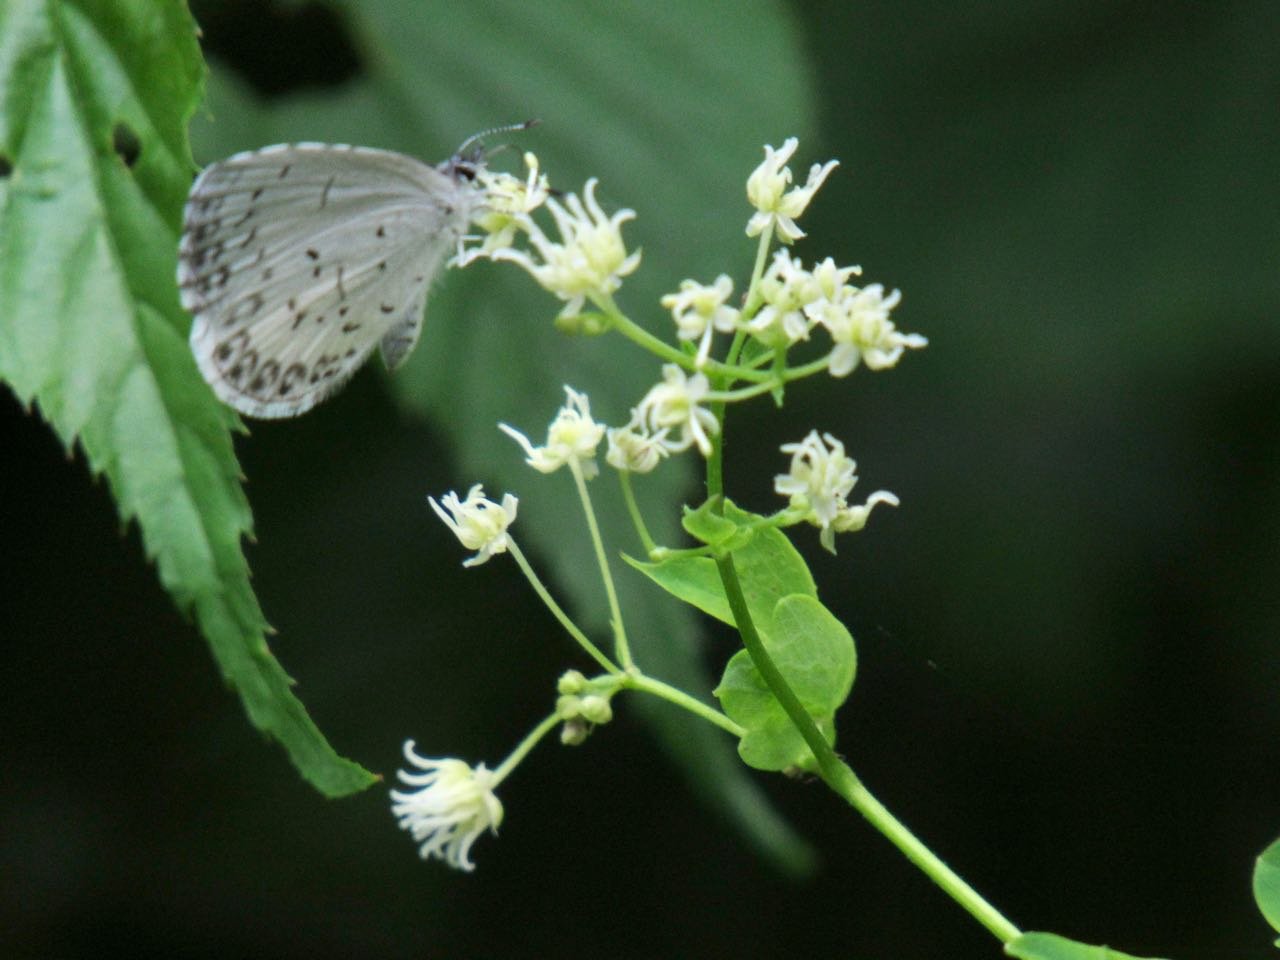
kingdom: Animalia
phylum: Arthropoda
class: Insecta
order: Lepidoptera
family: Lycaenidae
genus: Cyaniris
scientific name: Cyaniris neglecta
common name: Summer Azure
